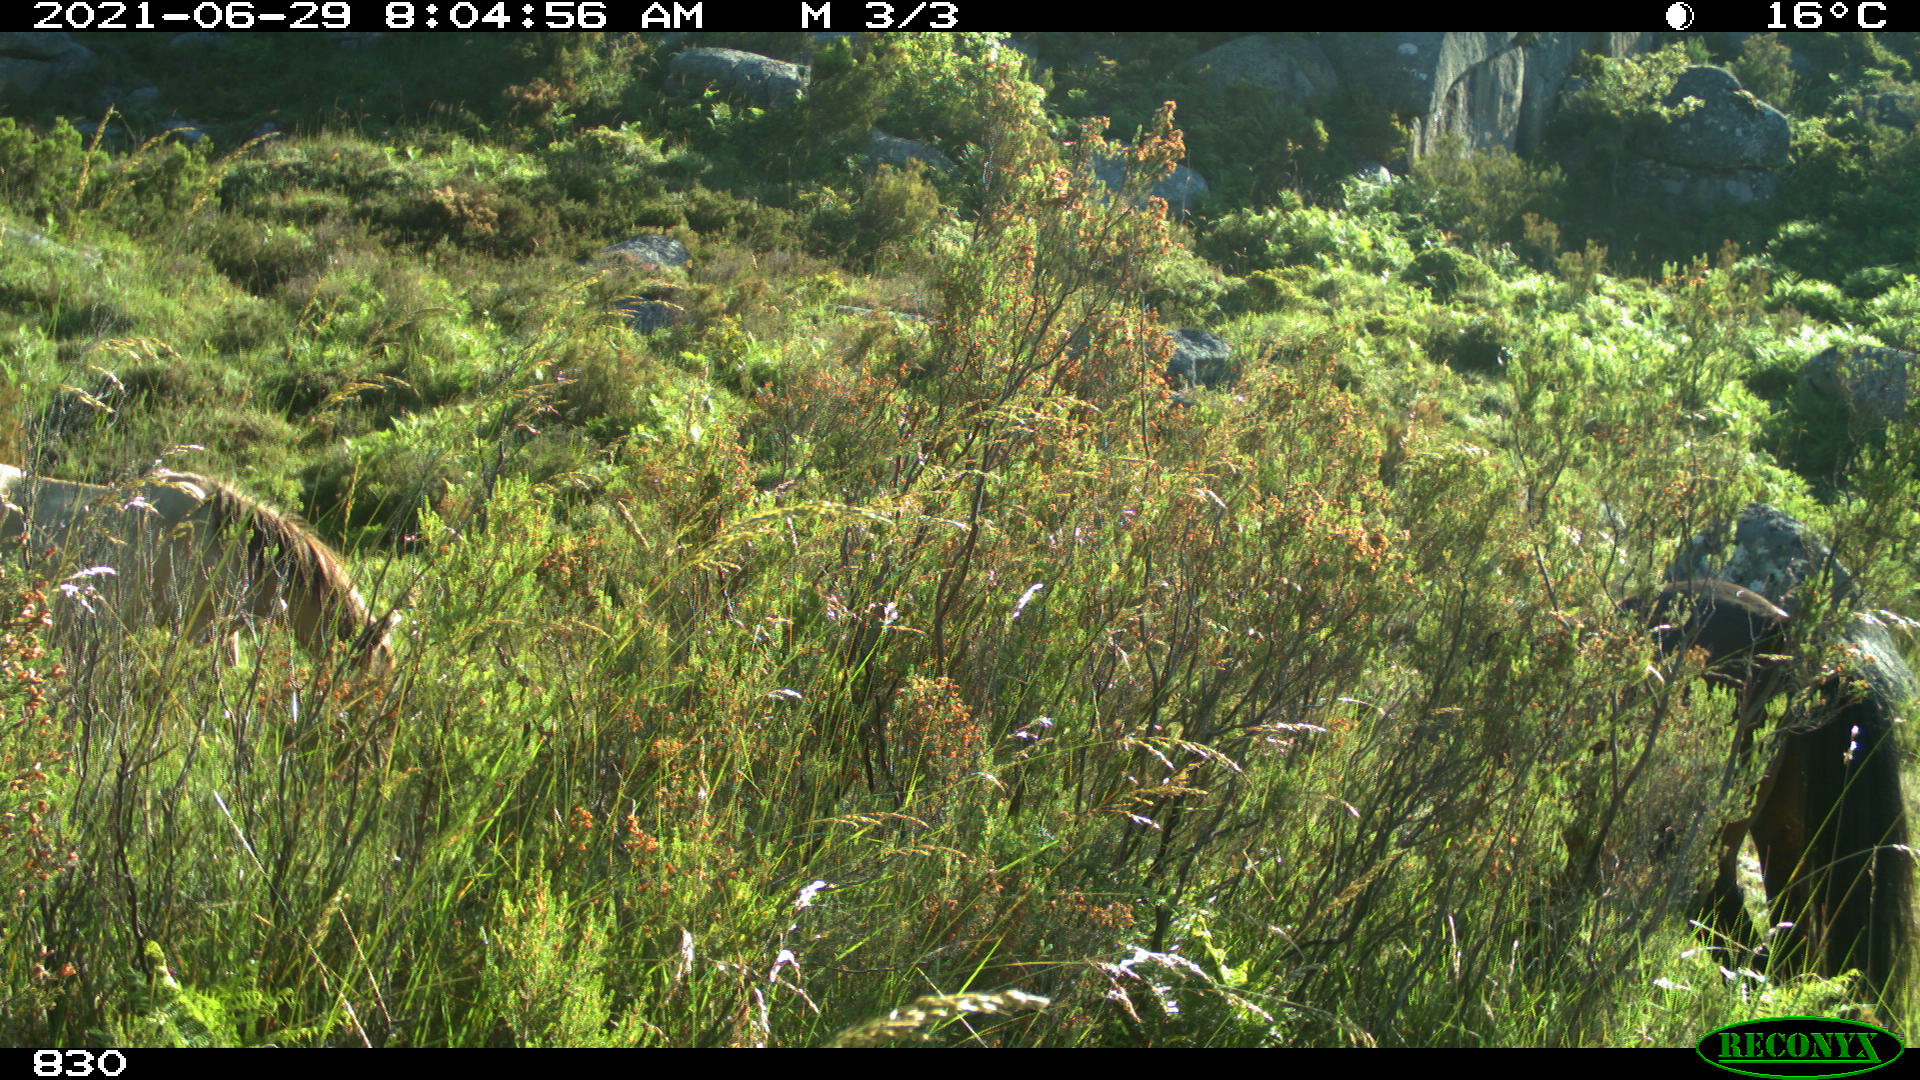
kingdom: Animalia
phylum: Chordata
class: Mammalia
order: Perissodactyla
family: Equidae
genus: Equus
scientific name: Equus caballus
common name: Horse
